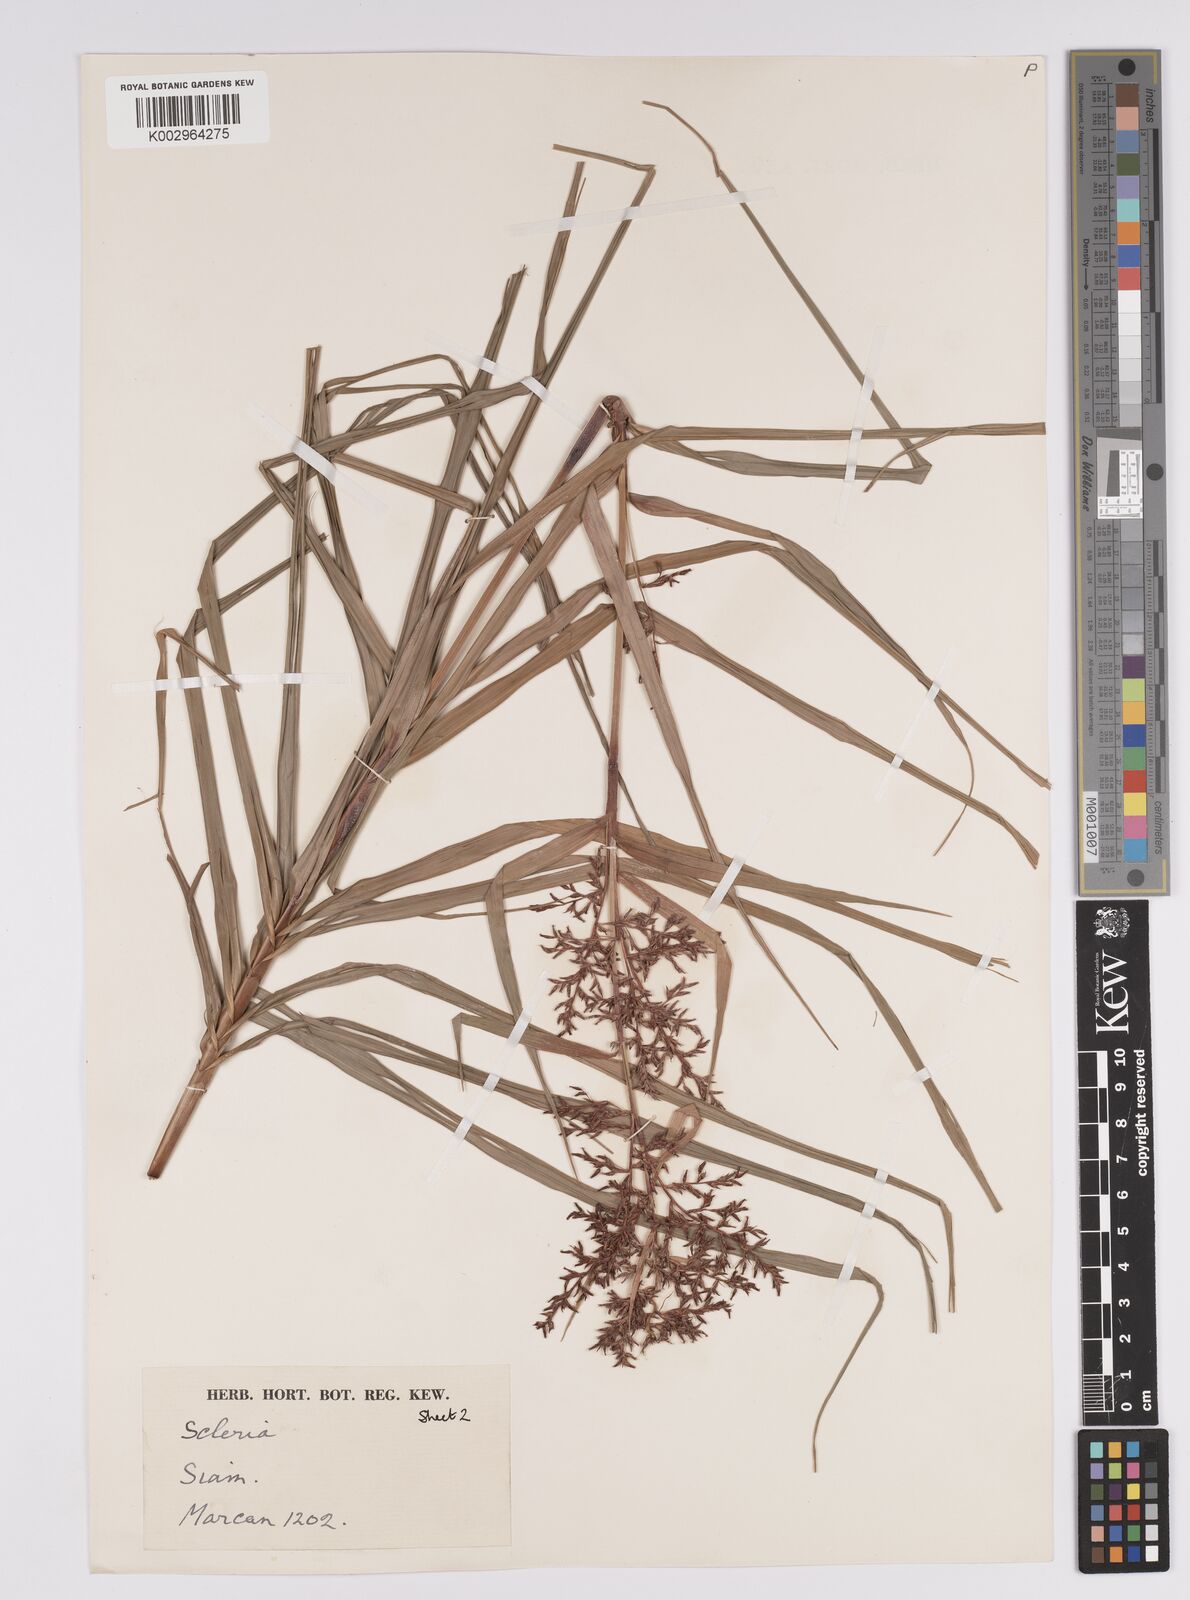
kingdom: Plantae
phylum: Tracheophyta
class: Liliopsida
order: Poales
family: Cyperaceae
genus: Scleria
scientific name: Scleria
